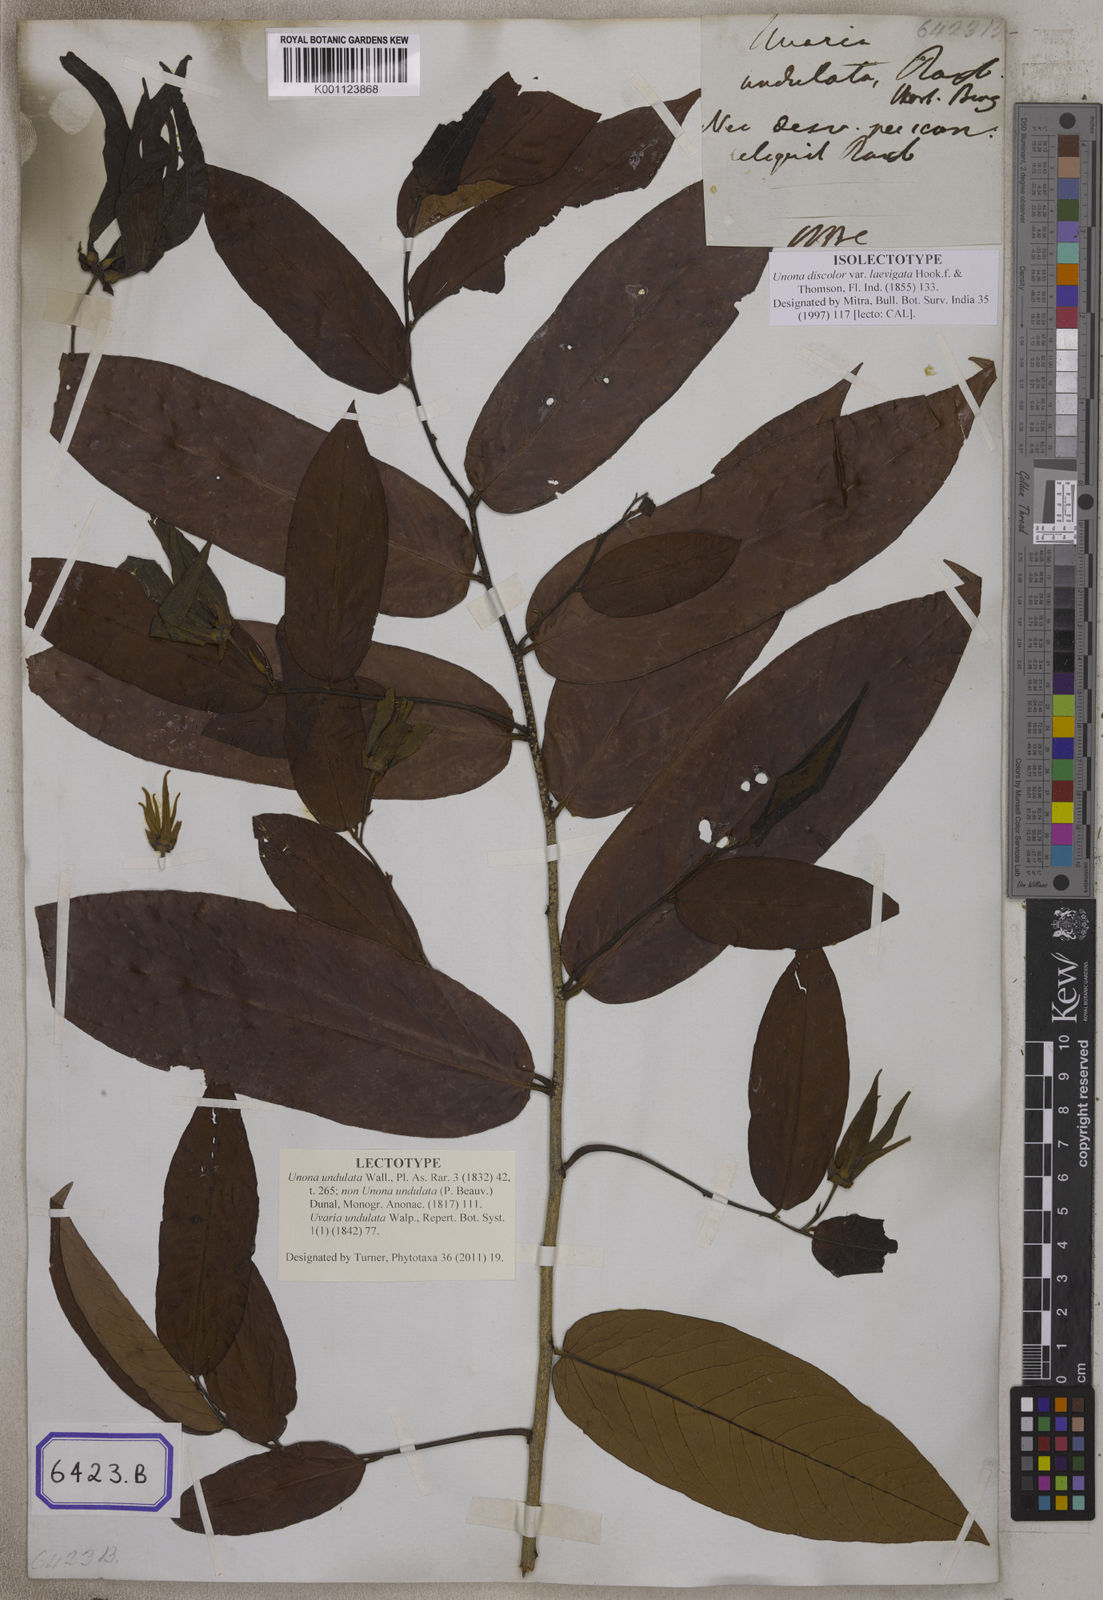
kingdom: Plantae
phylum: Tracheophyta
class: Magnoliopsida
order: Magnoliales
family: Annonaceae
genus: Unona
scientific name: Unona
